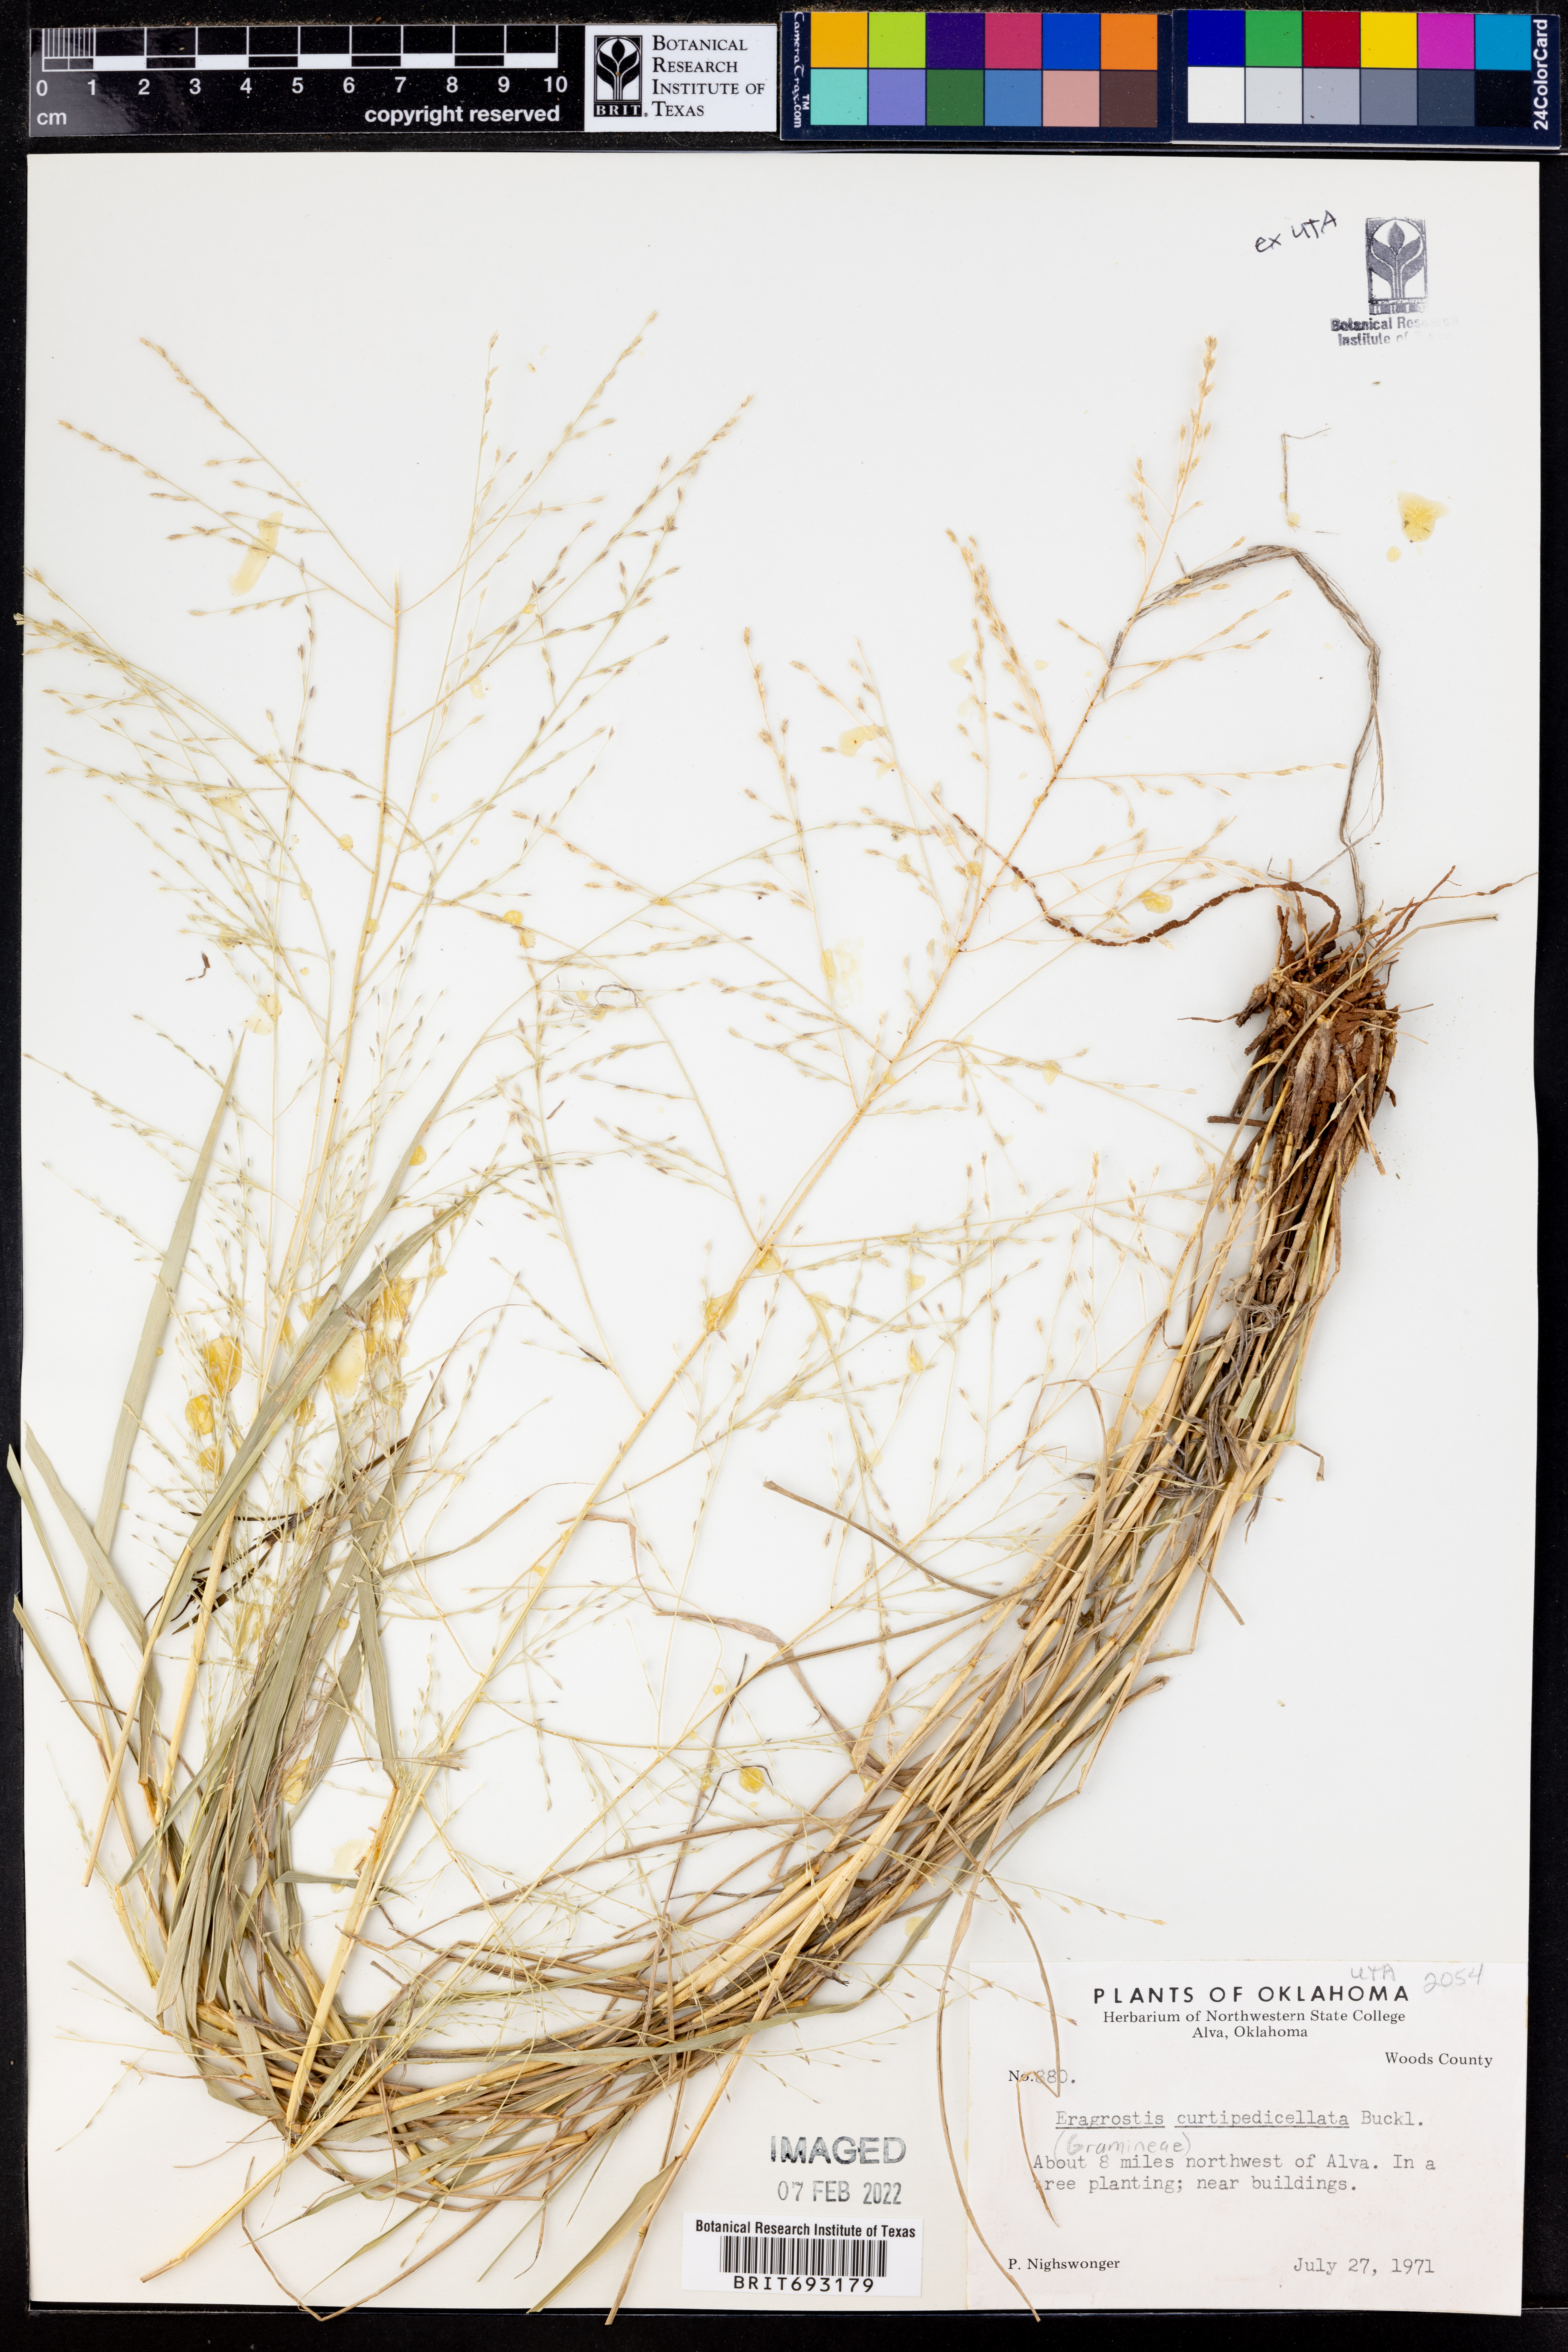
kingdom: Plantae
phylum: Tracheophyta
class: Liliopsida
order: Poales
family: Poaceae
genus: Eragrostis
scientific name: Eragrostis curtipedicellata
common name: Gummy love grass
